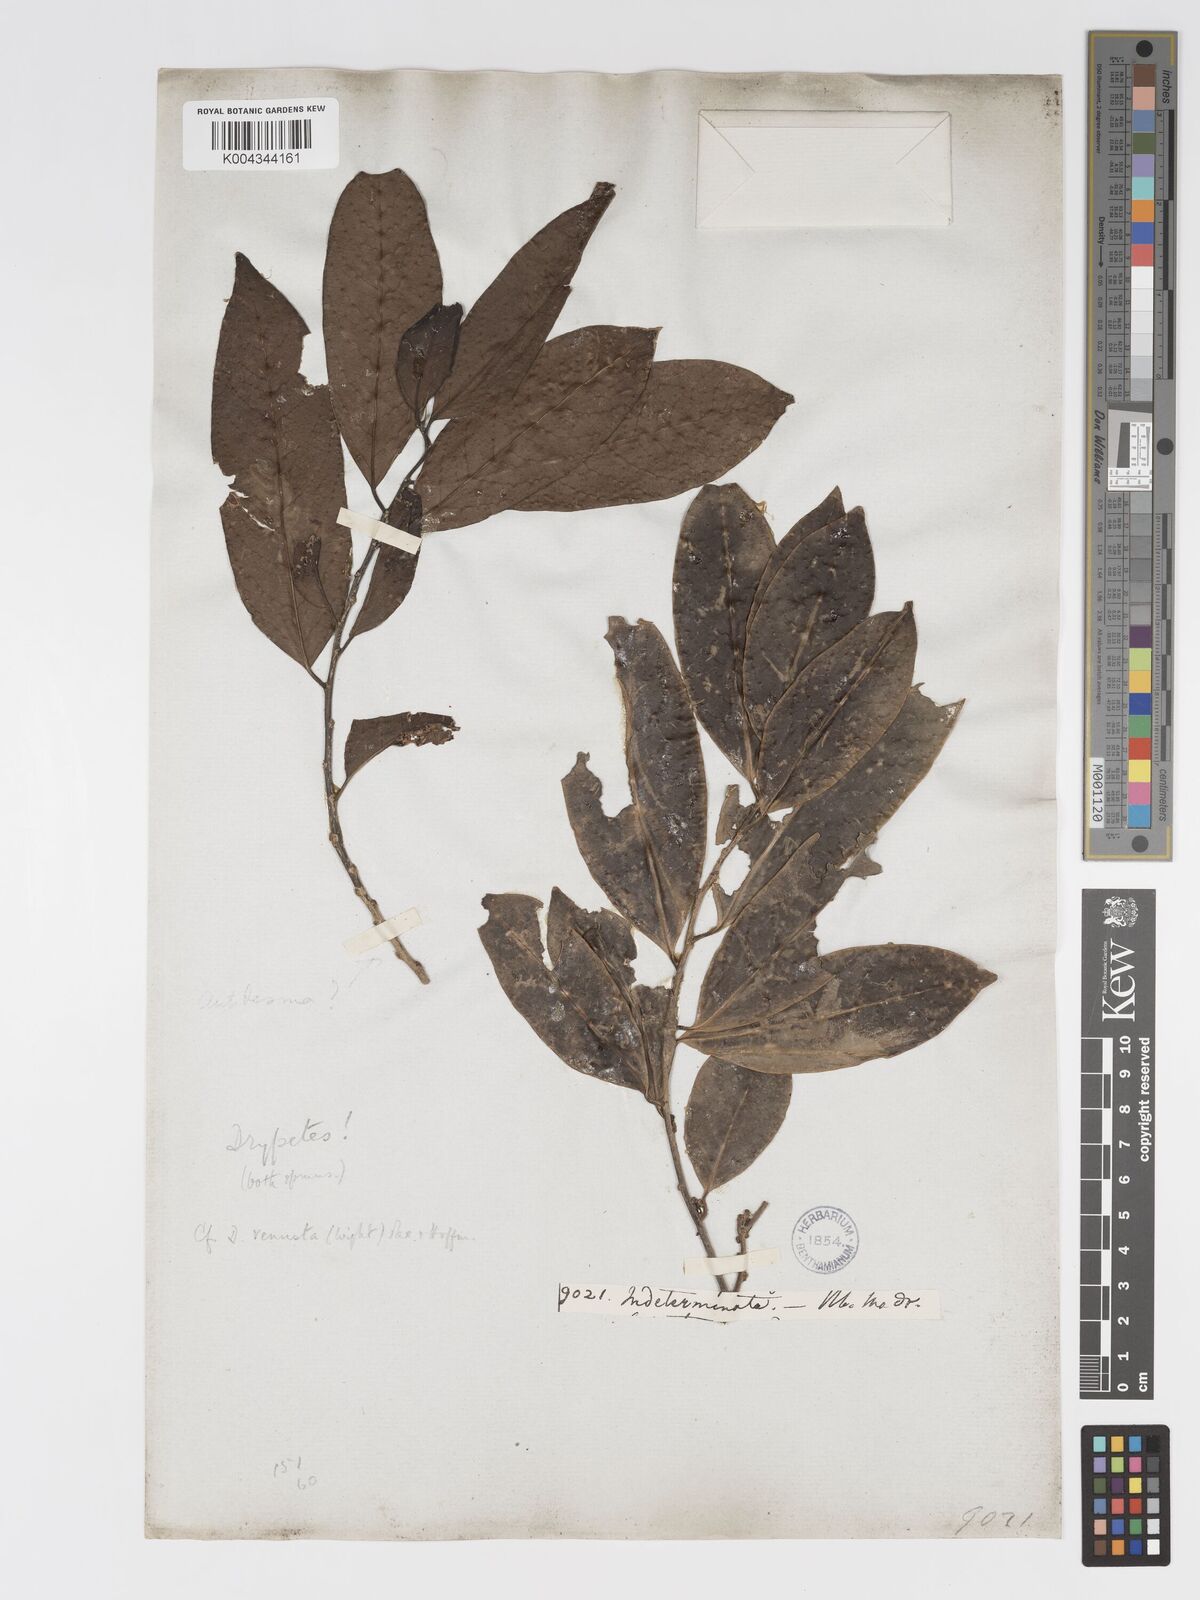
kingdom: Plantae
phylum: Tracheophyta
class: Magnoliopsida
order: Malpighiales
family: Putranjivaceae
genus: Drypetes
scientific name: Drypetes venusta
